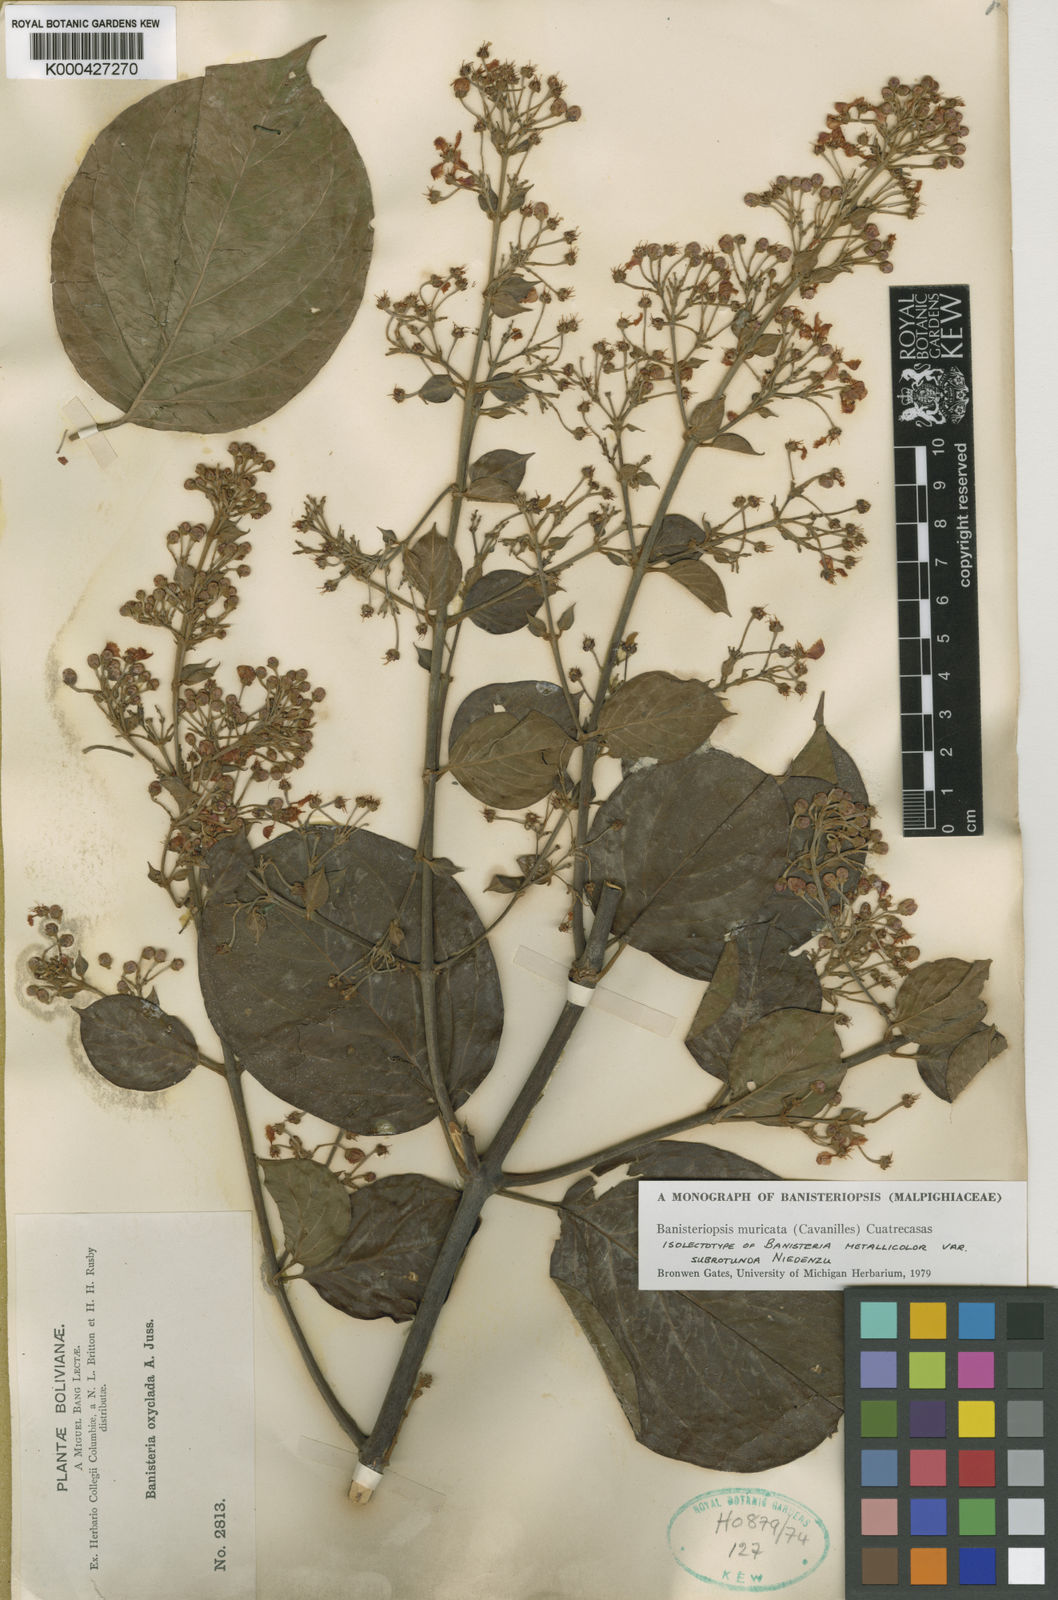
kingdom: Plantae
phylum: Tracheophyta
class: Magnoliopsida
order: Malpighiales
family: Malpighiaceae
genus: Banisteriopsis
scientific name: Banisteriopsis muricata
